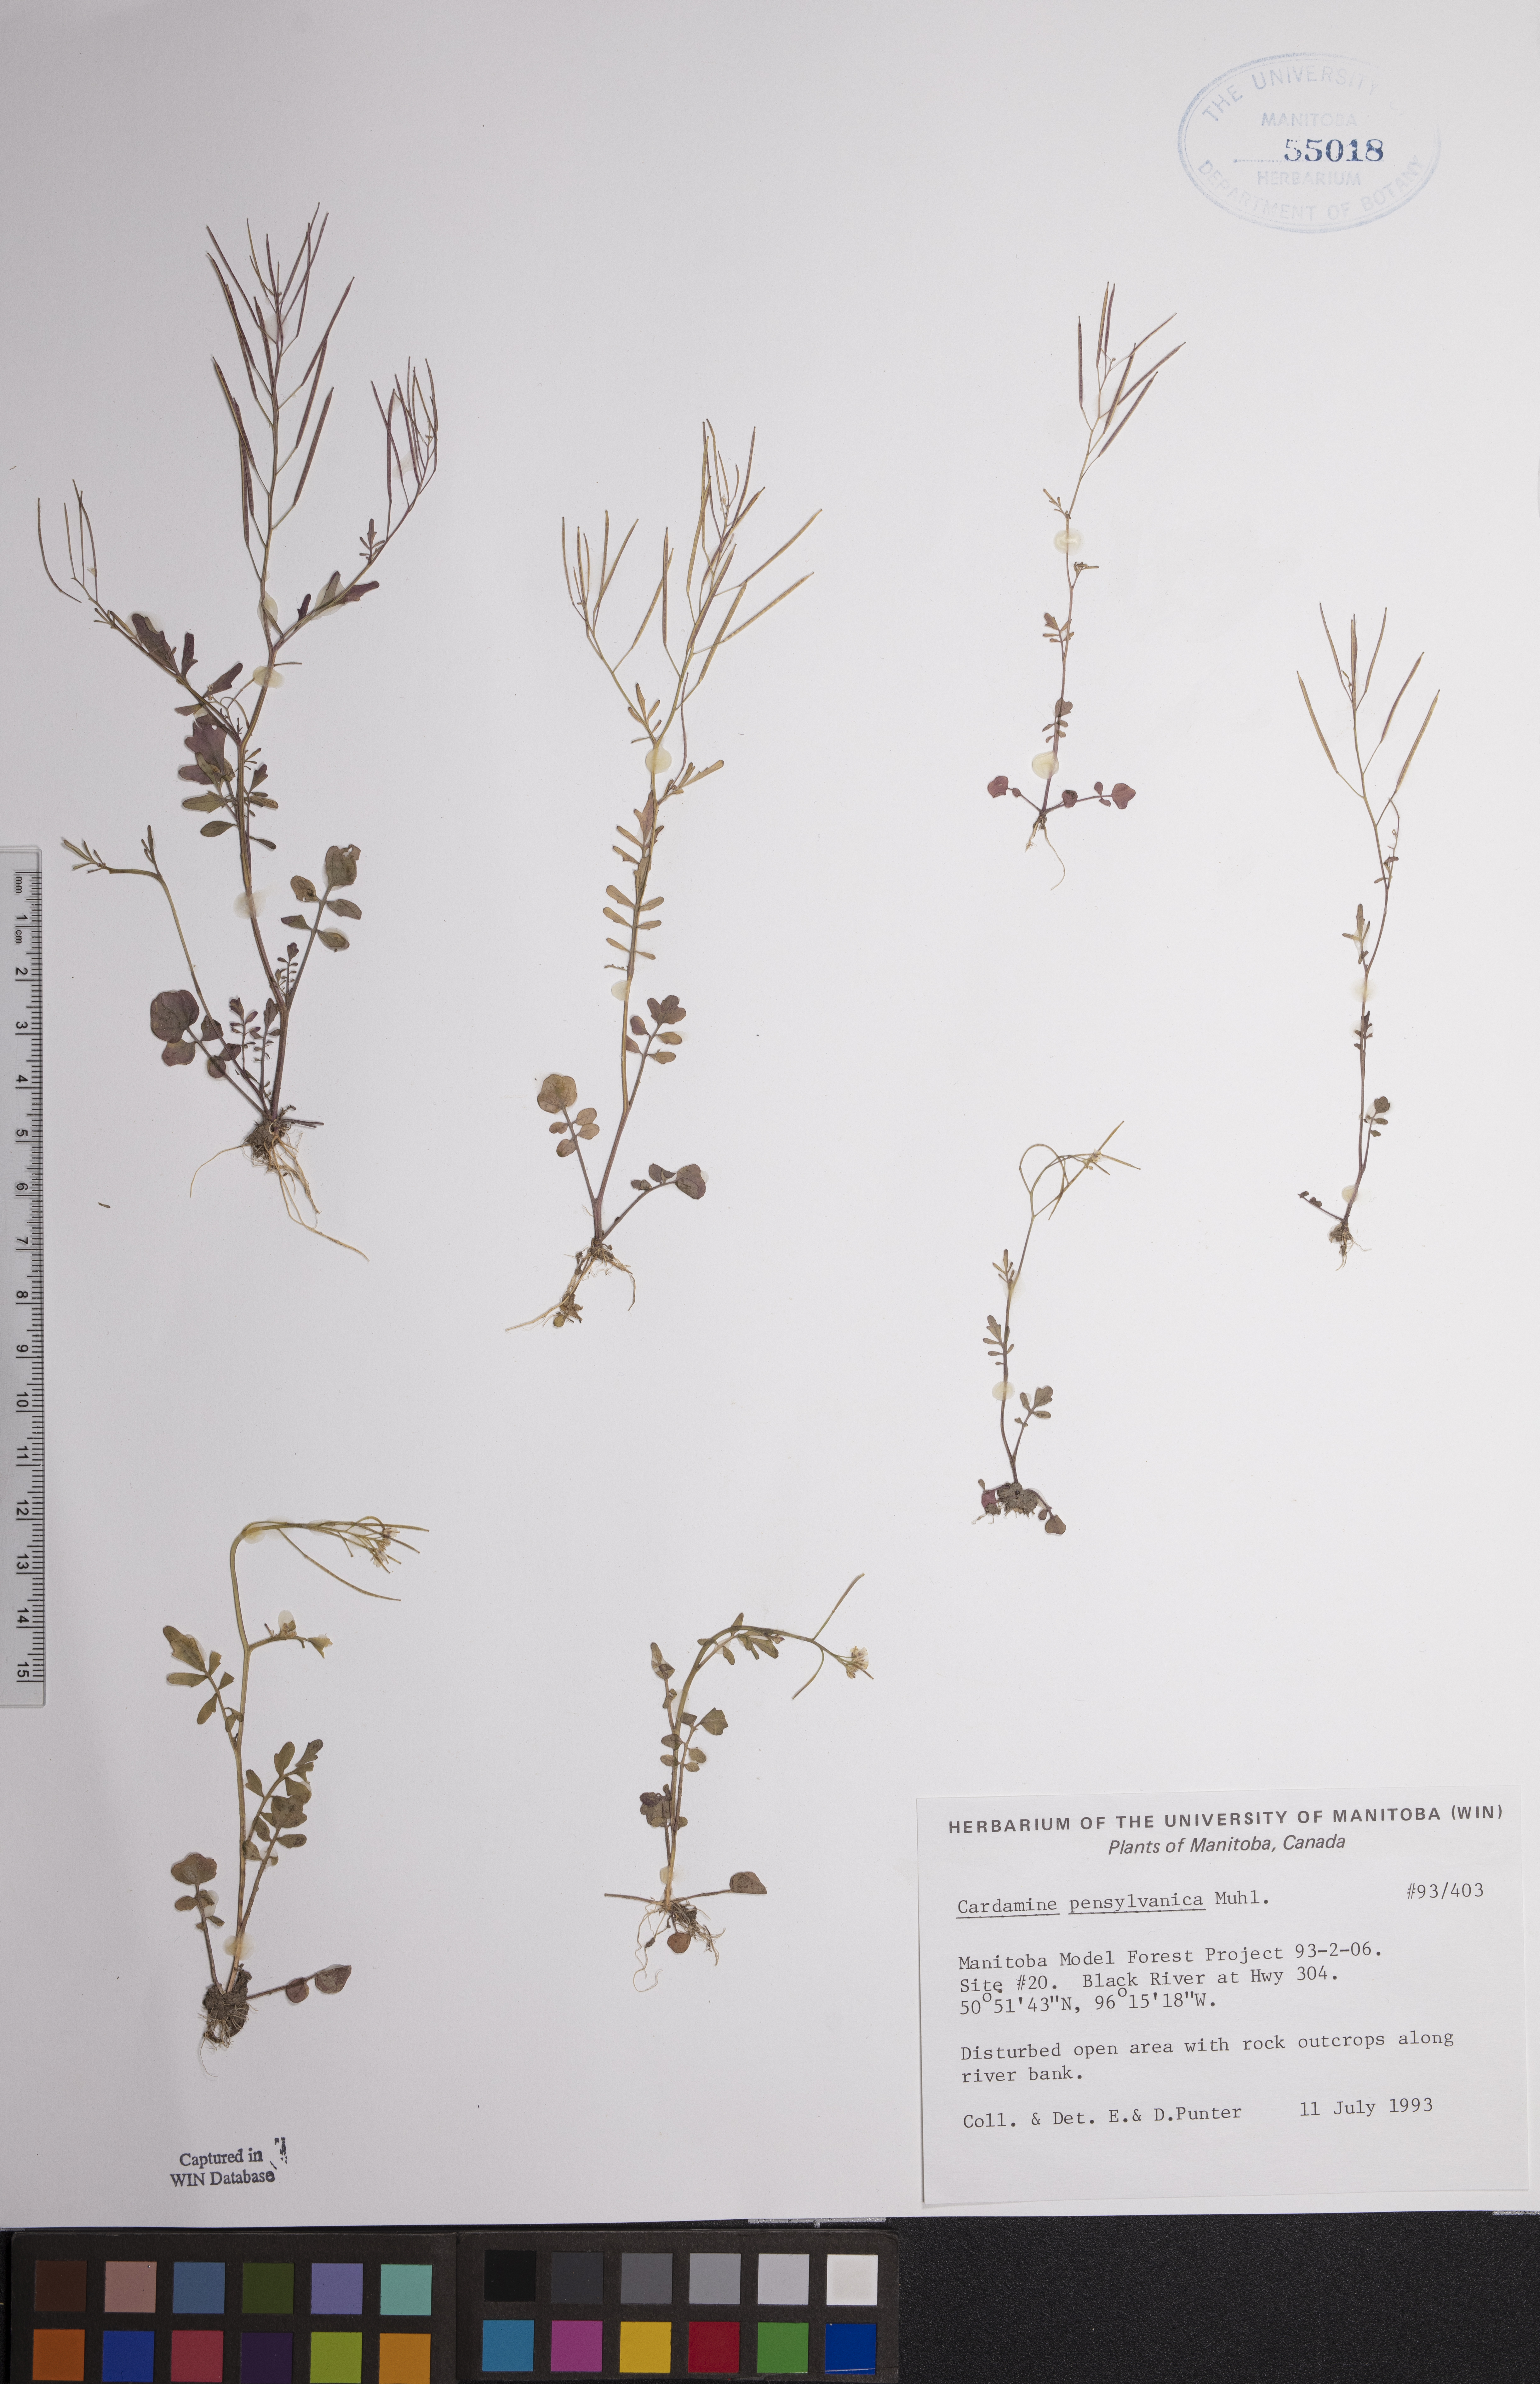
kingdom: Plantae
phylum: Tracheophyta
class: Magnoliopsida
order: Brassicales
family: Brassicaceae
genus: Cardamine
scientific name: Cardamine pensylvanica
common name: Pennsylvania bittercress
